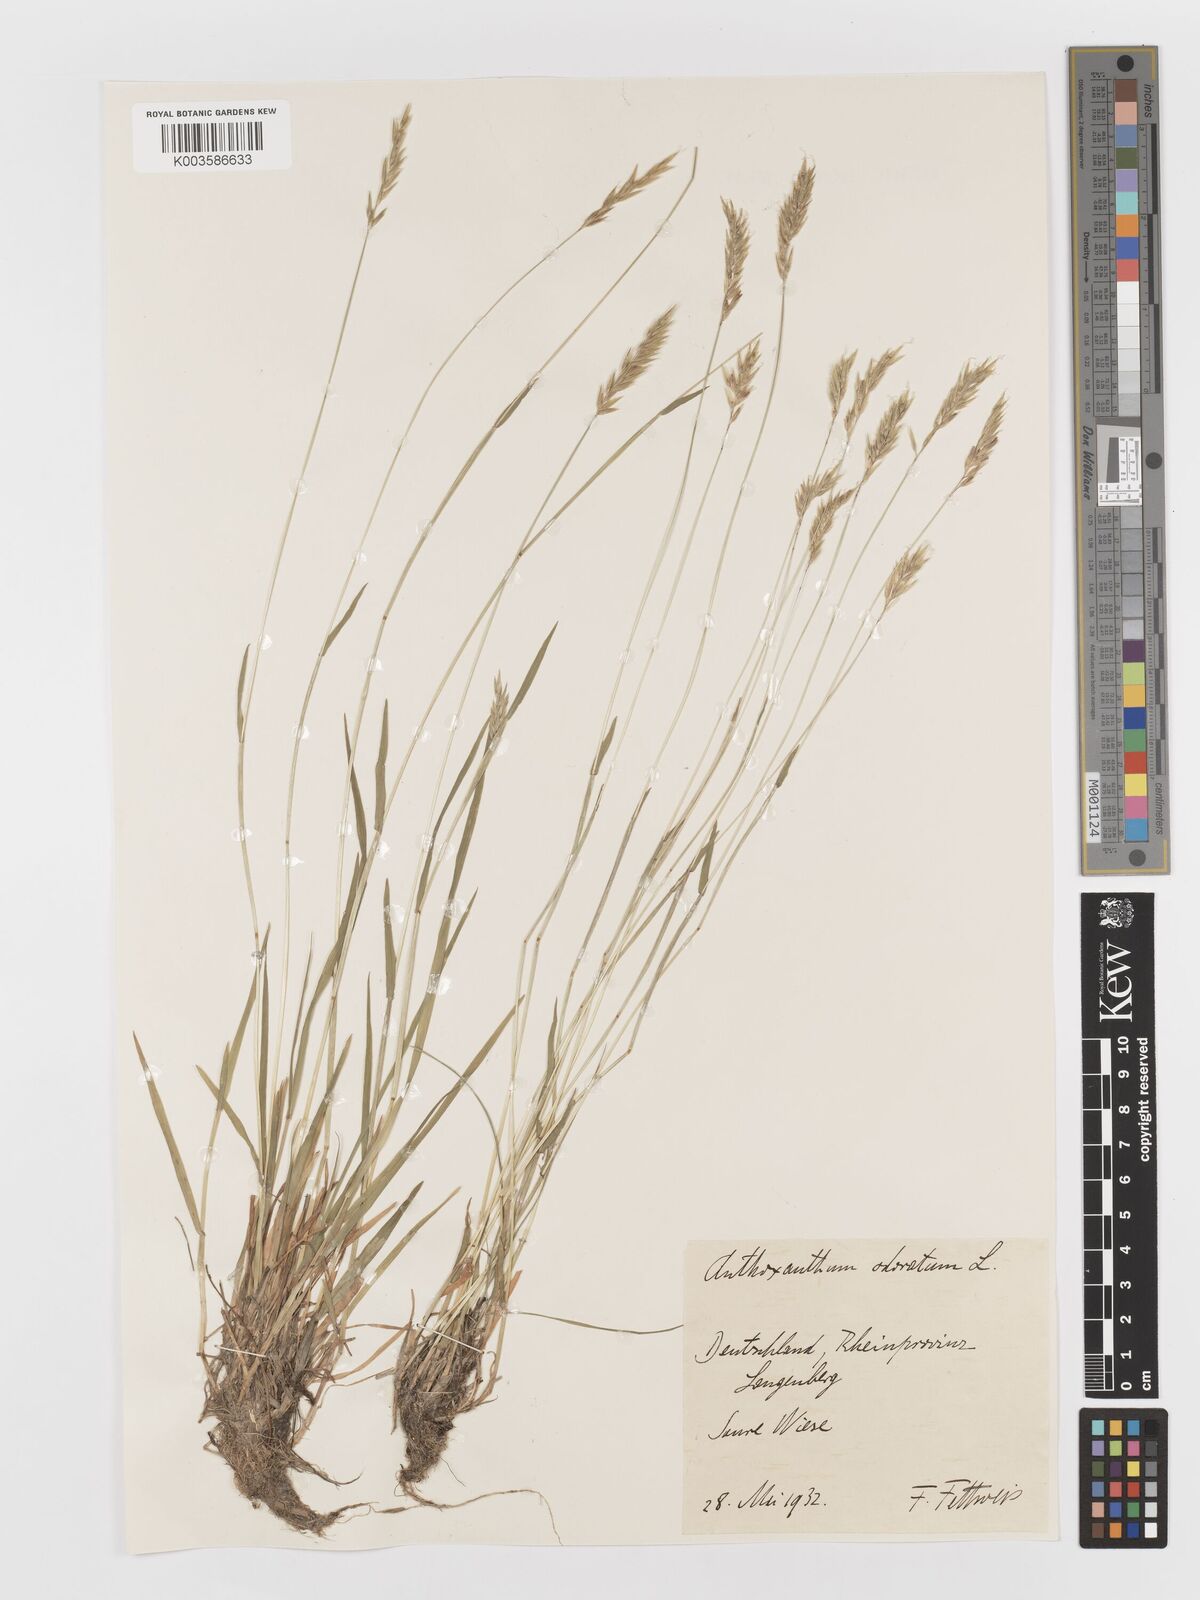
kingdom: Plantae
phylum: Tracheophyta
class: Liliopsida
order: Poales
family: Poaceae
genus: Anthoxanthum
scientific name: Anthoxanthum odoratum
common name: Sweet vernalgrass
